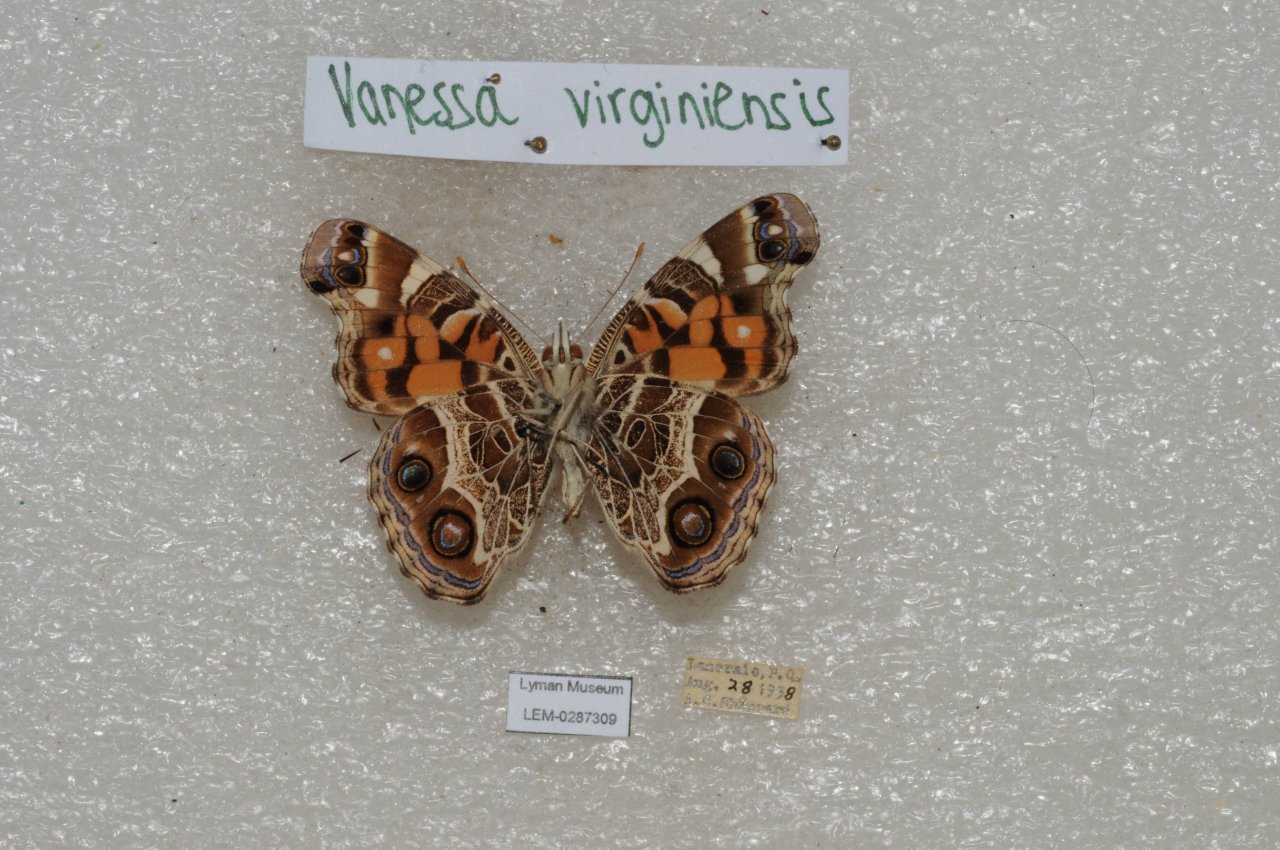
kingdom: Animalia
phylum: Arthropoda
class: Insecta
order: Lepidoptera
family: Nymphalidae
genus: Vanessa
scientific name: Vanessa virginiensis
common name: American Lady
